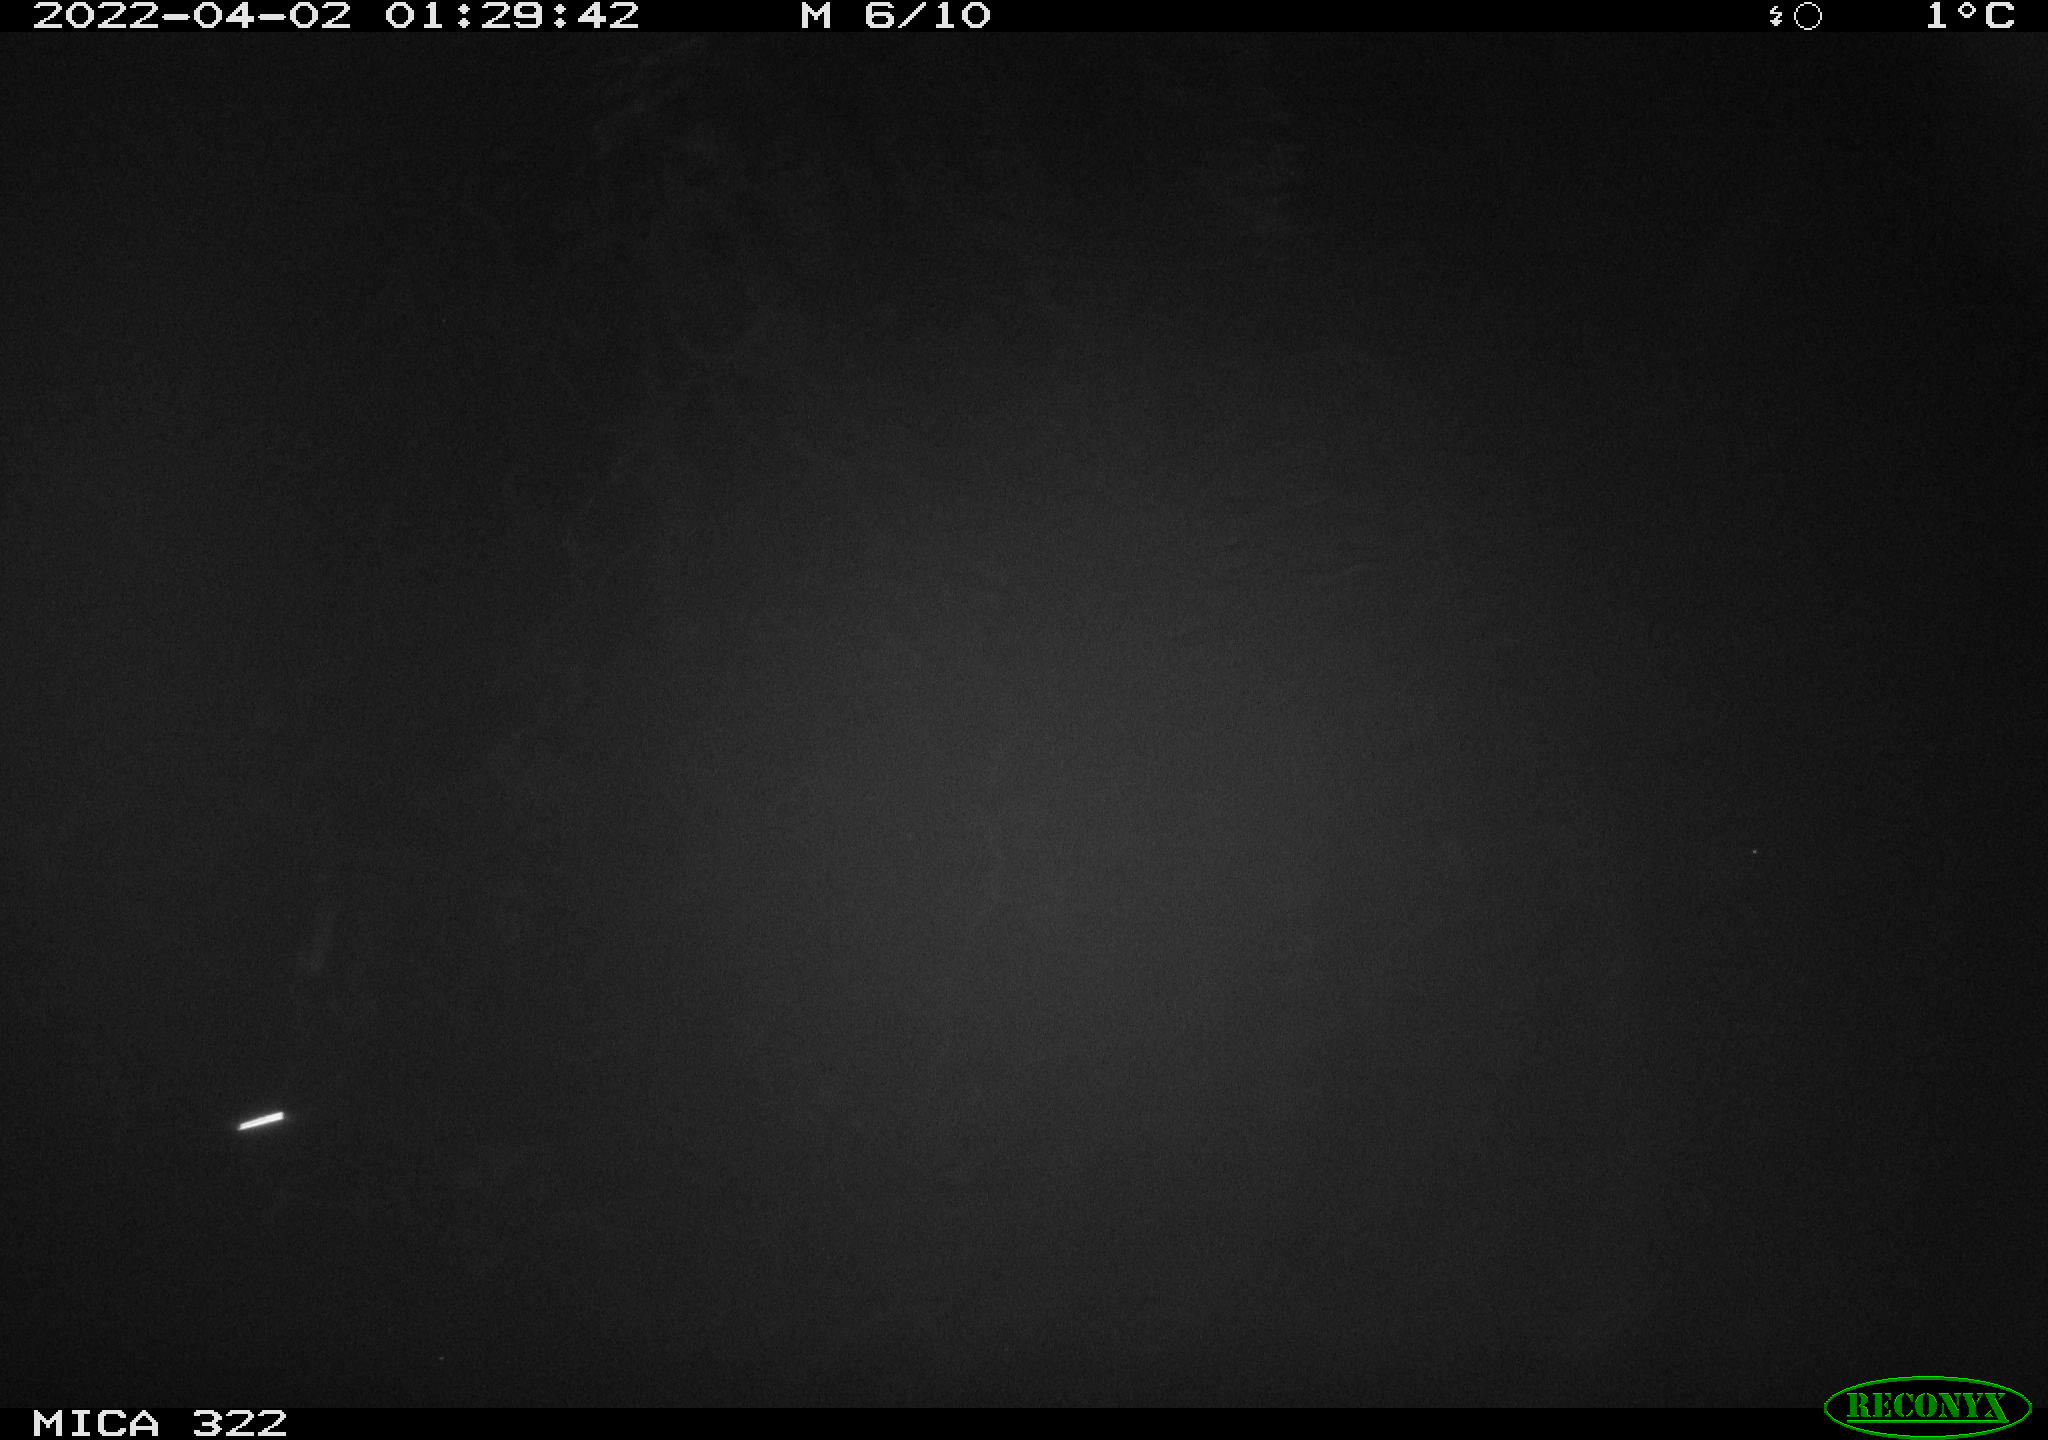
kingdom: Animalia
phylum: Chordata
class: Aves
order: Anseriformes
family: Anatidae
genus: Anas
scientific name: Anas platyrhynchos
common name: Mallard
